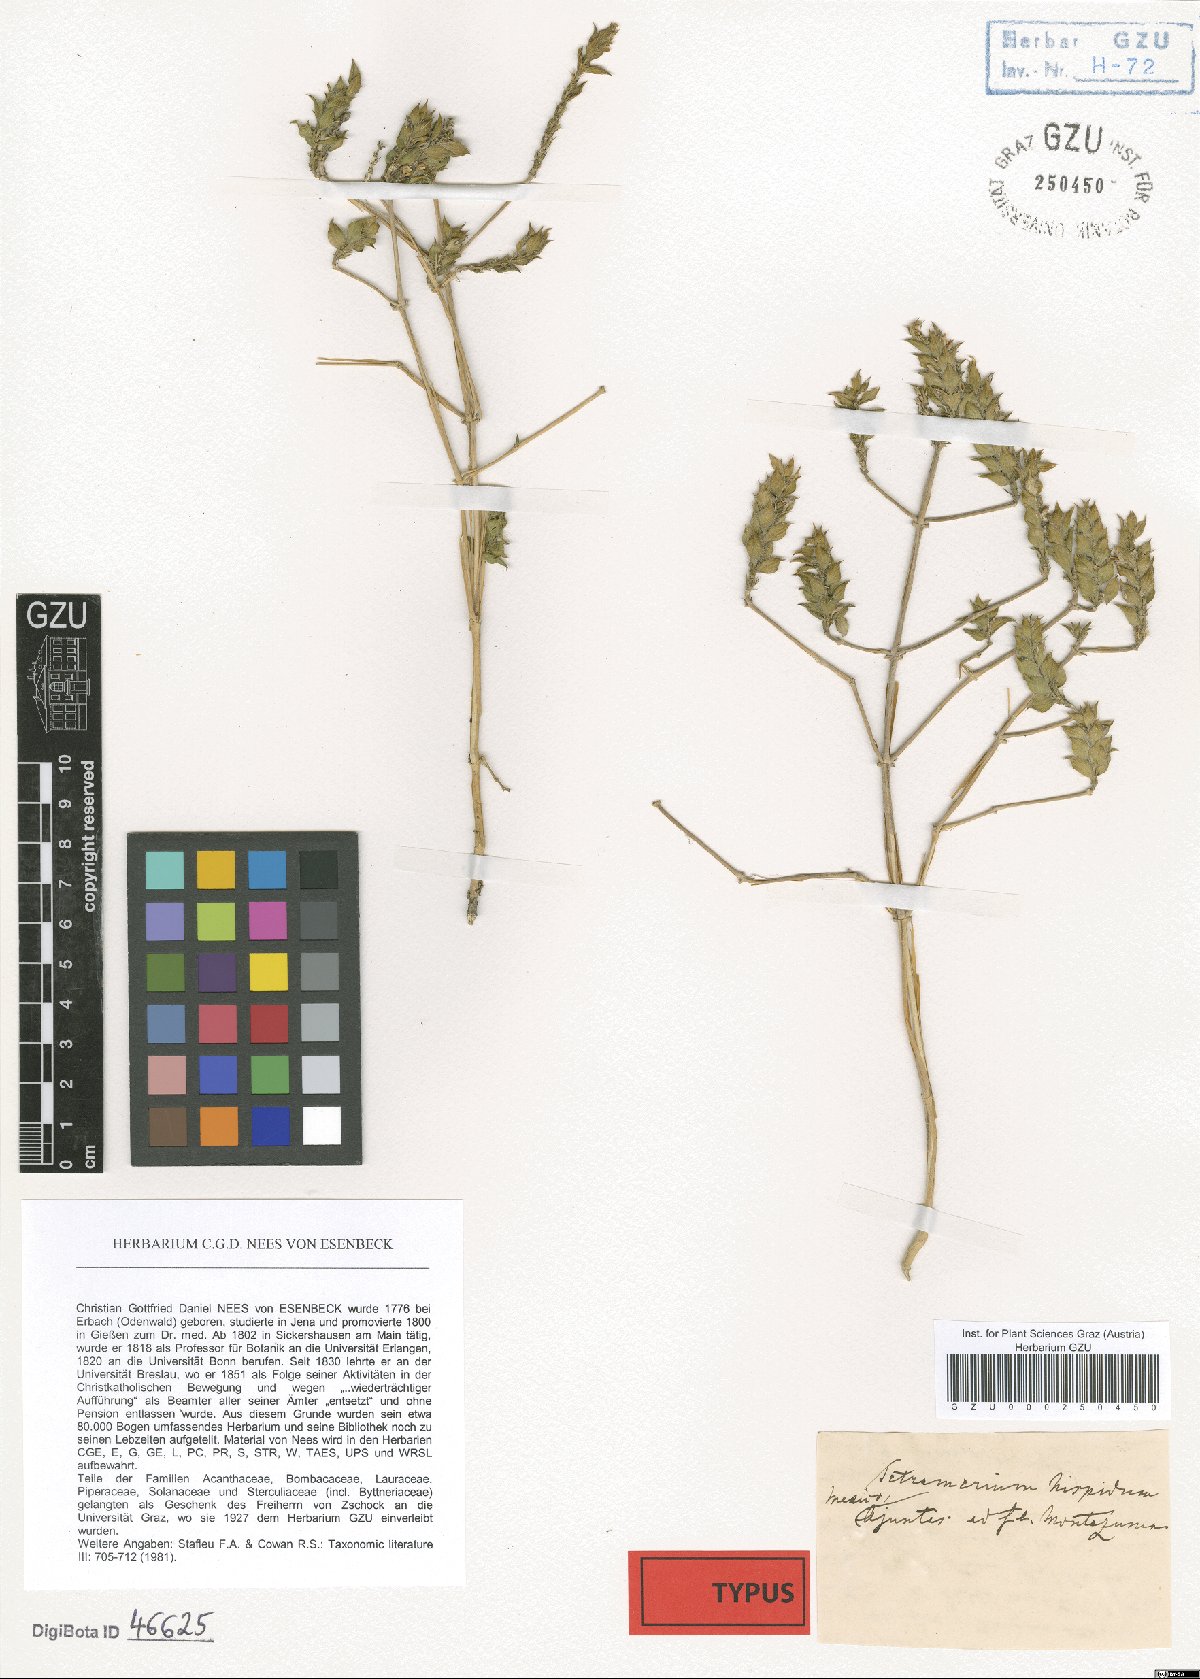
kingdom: Plantae
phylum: Tracheophyta
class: Magnoliopsida
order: Lamiales
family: Acanthaceae
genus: Tetramerium
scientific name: Tetramerium nervosum
